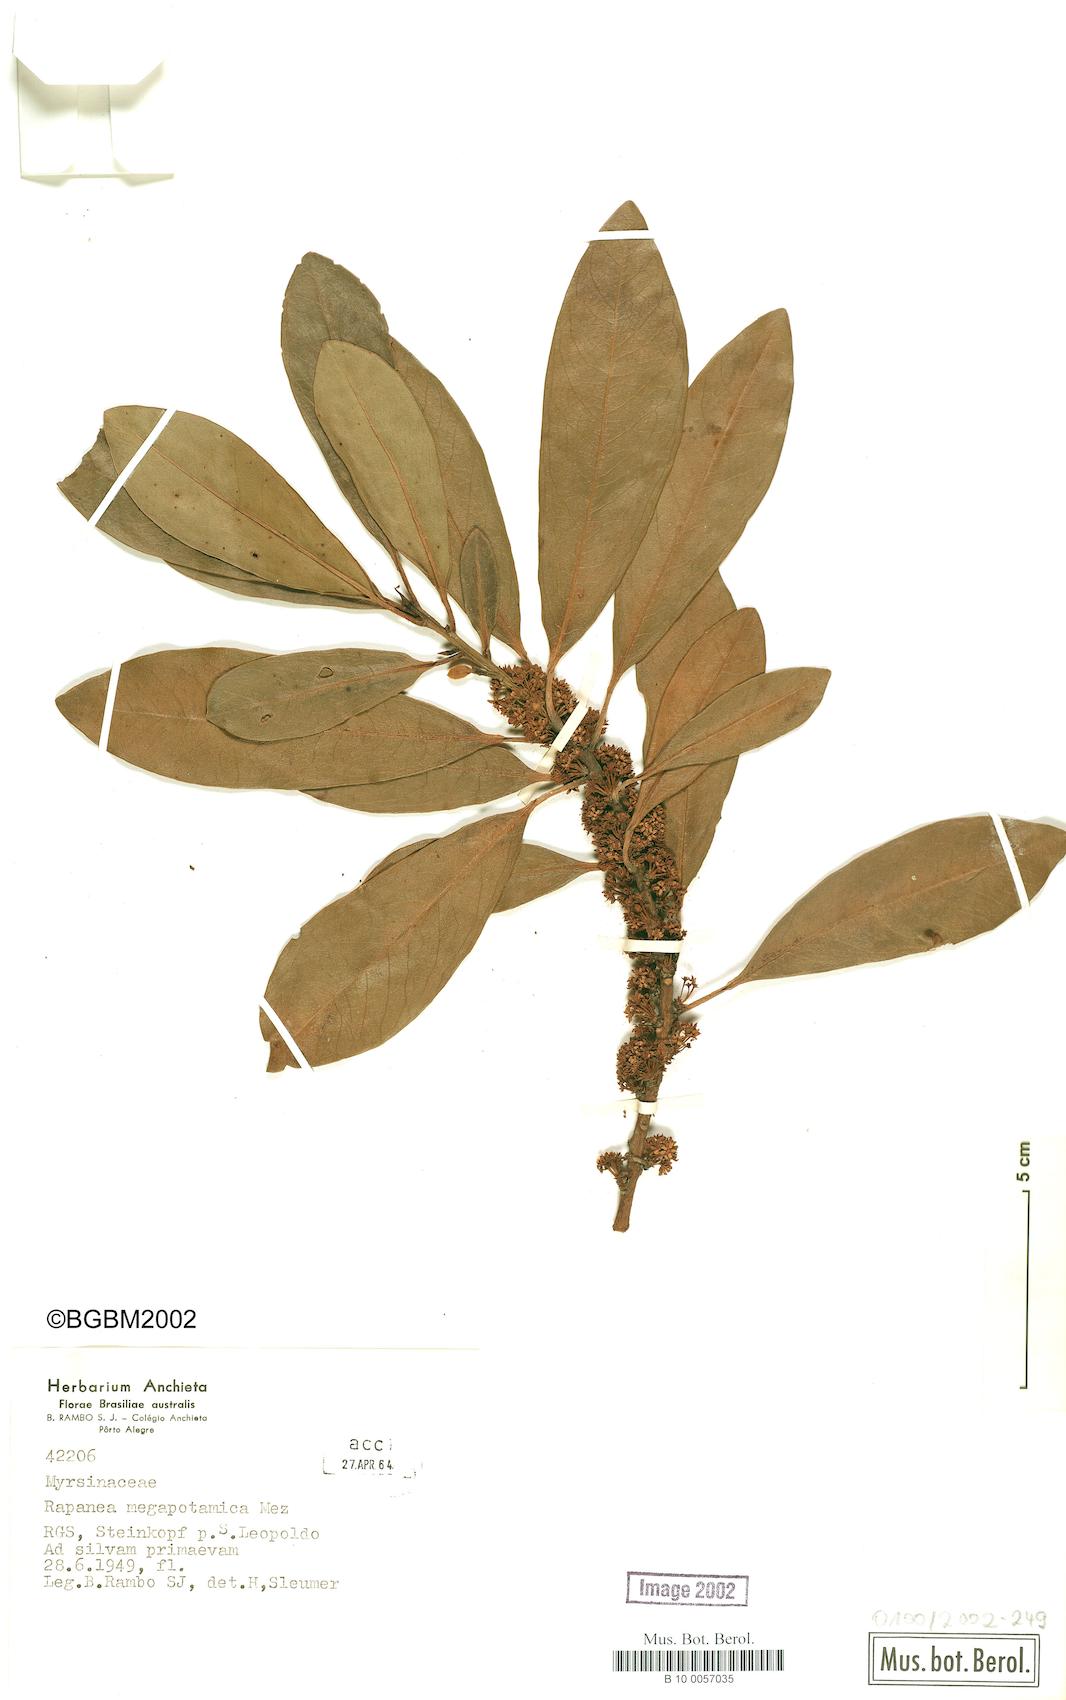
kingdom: Plantae
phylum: Tracheophyta
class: Magnoliopsida
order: Ericales
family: Primulaceae
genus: Myrsine
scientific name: Myrsine lorentziana
